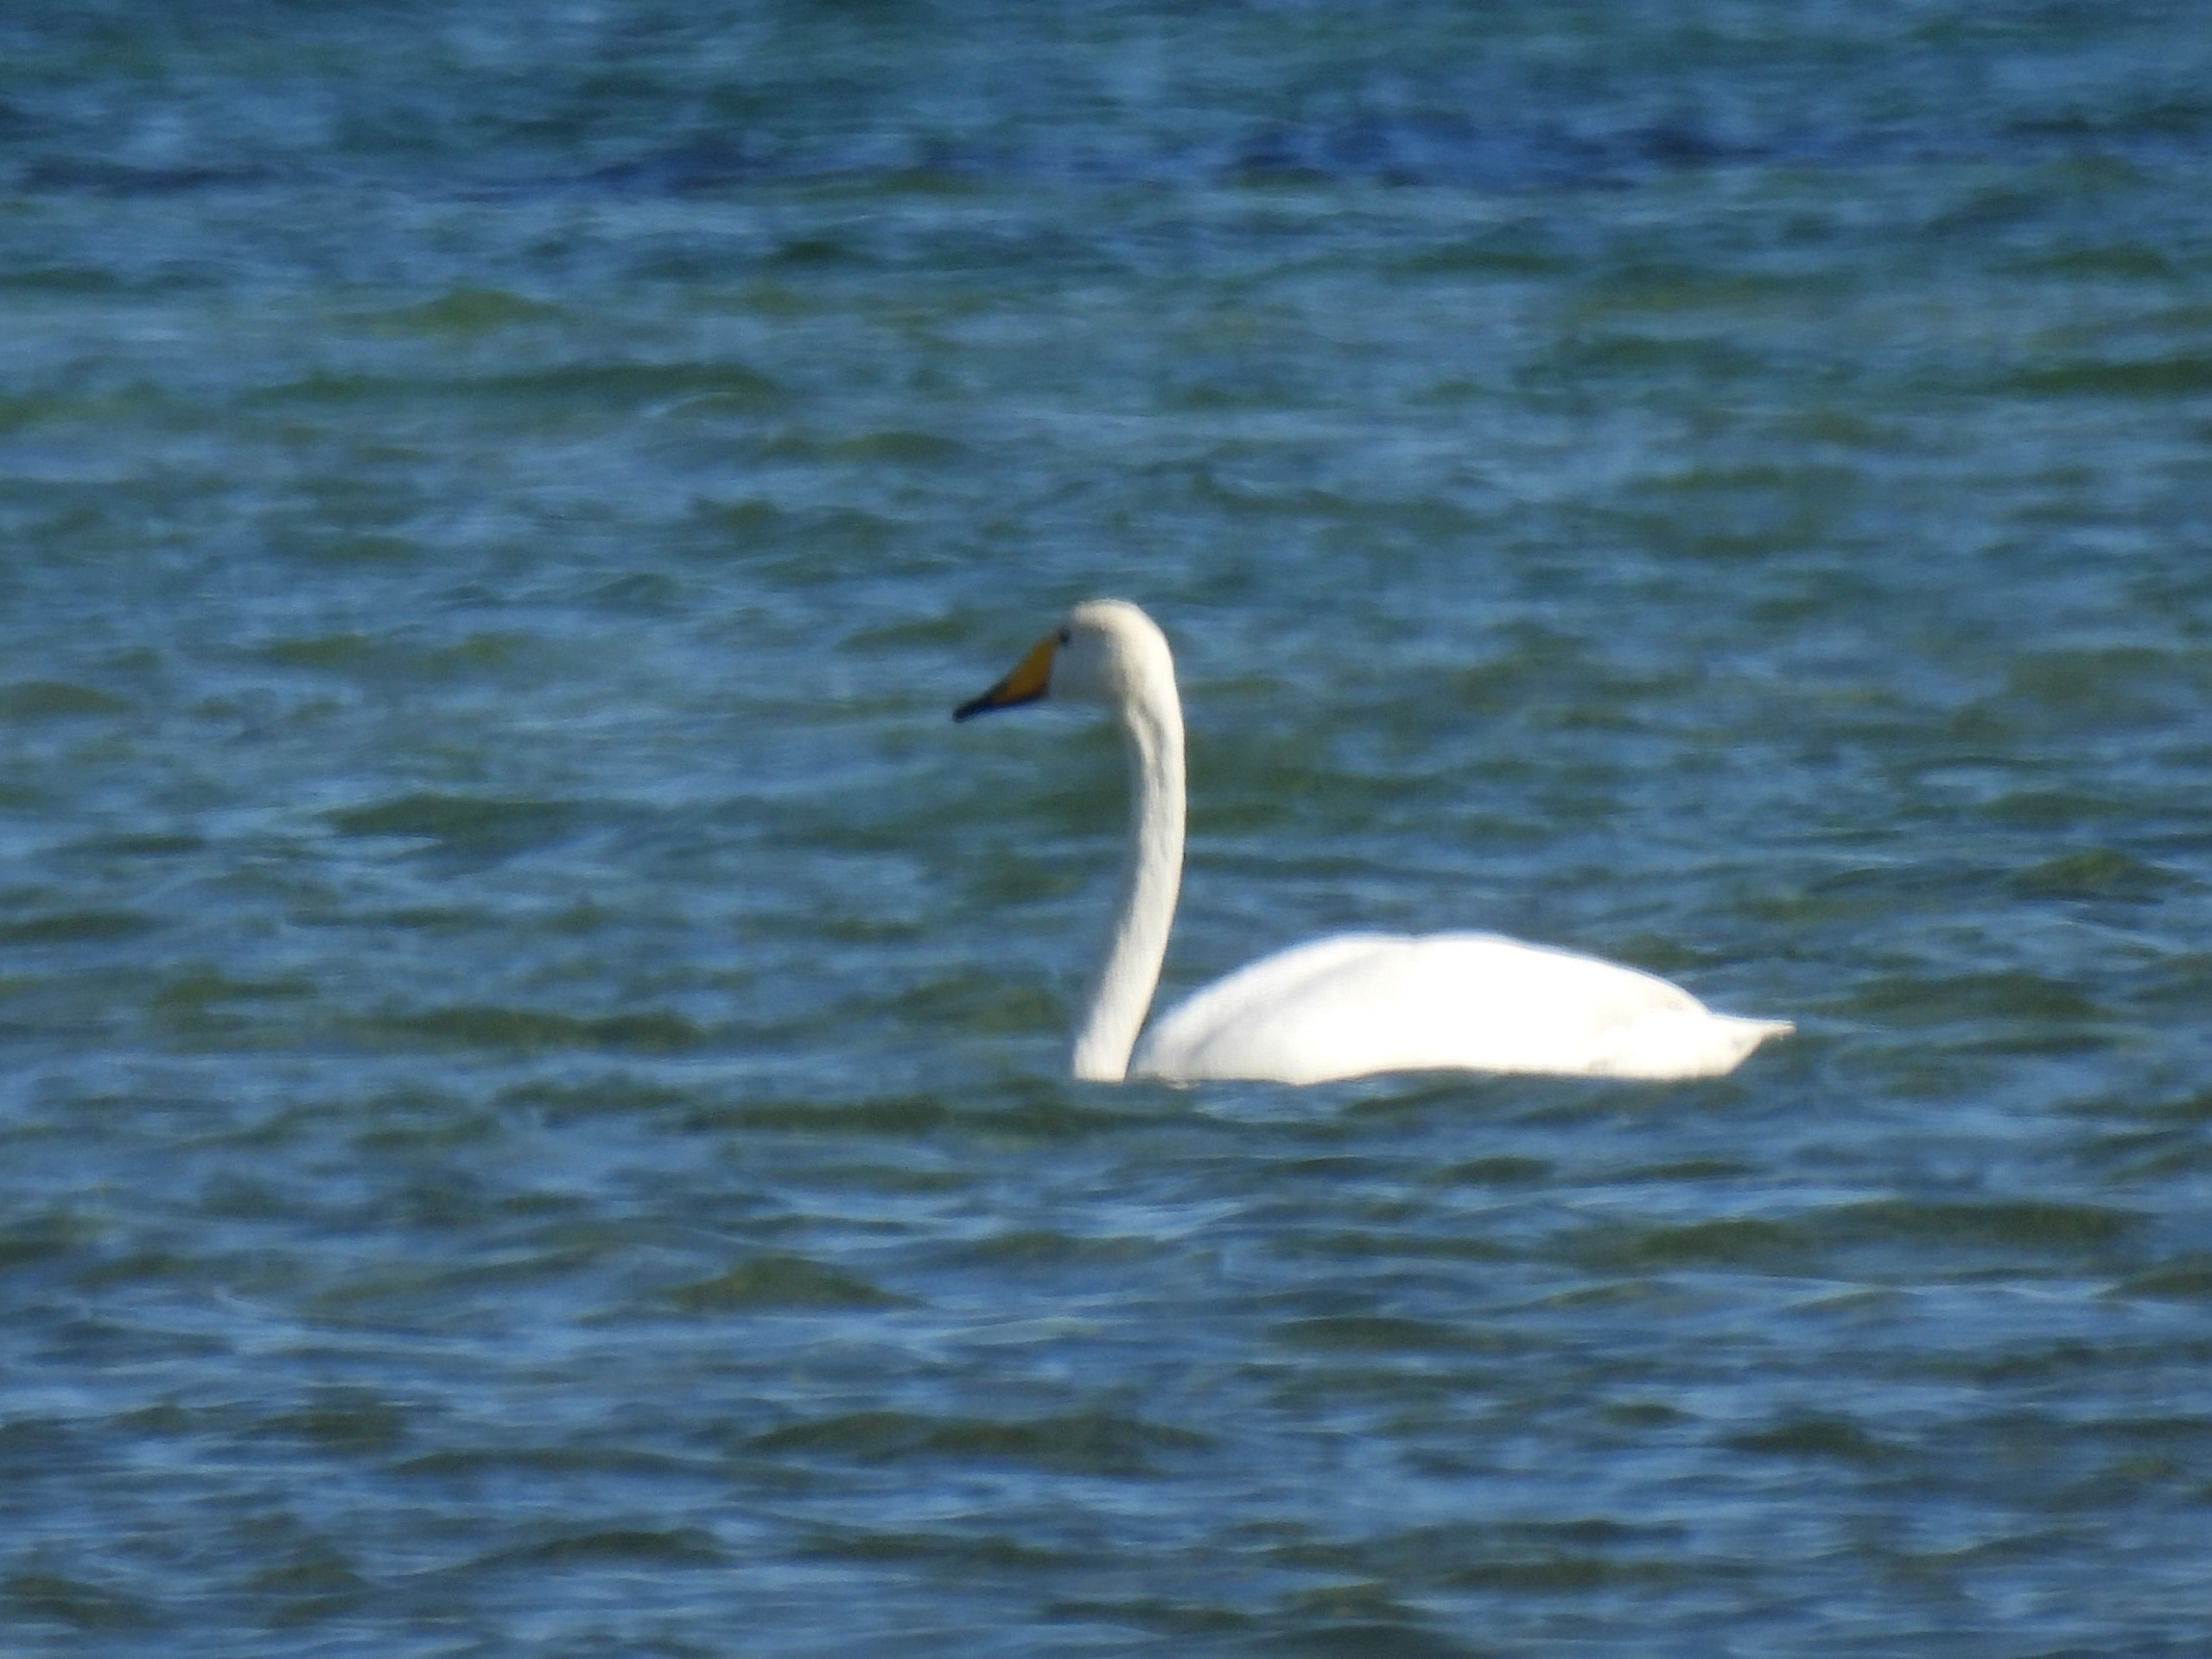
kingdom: Animalia
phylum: Chordata
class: Aves
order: Anseriformes
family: Anatidae
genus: Cygnus
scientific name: Cygnus cygnus
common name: Sangsvane
